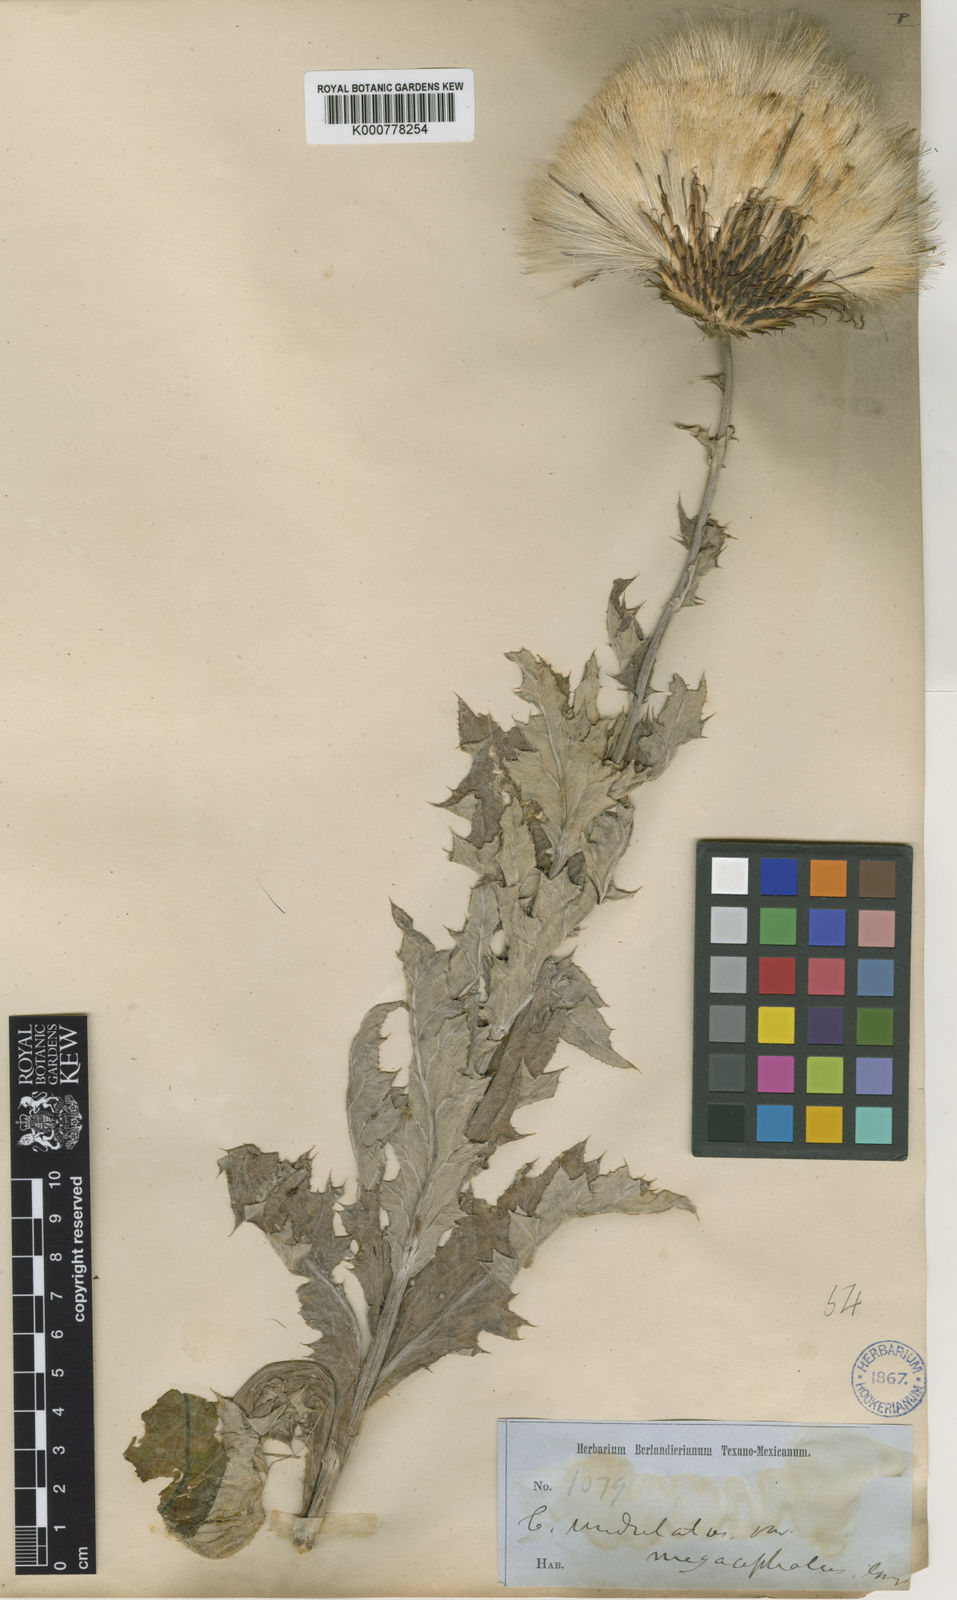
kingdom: Plantae
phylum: Tracheophyta
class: Magnoliopsida
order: Asterales
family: Asteraceae
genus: Cirsium
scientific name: Cirsium undulatum
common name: Pasture thistle
